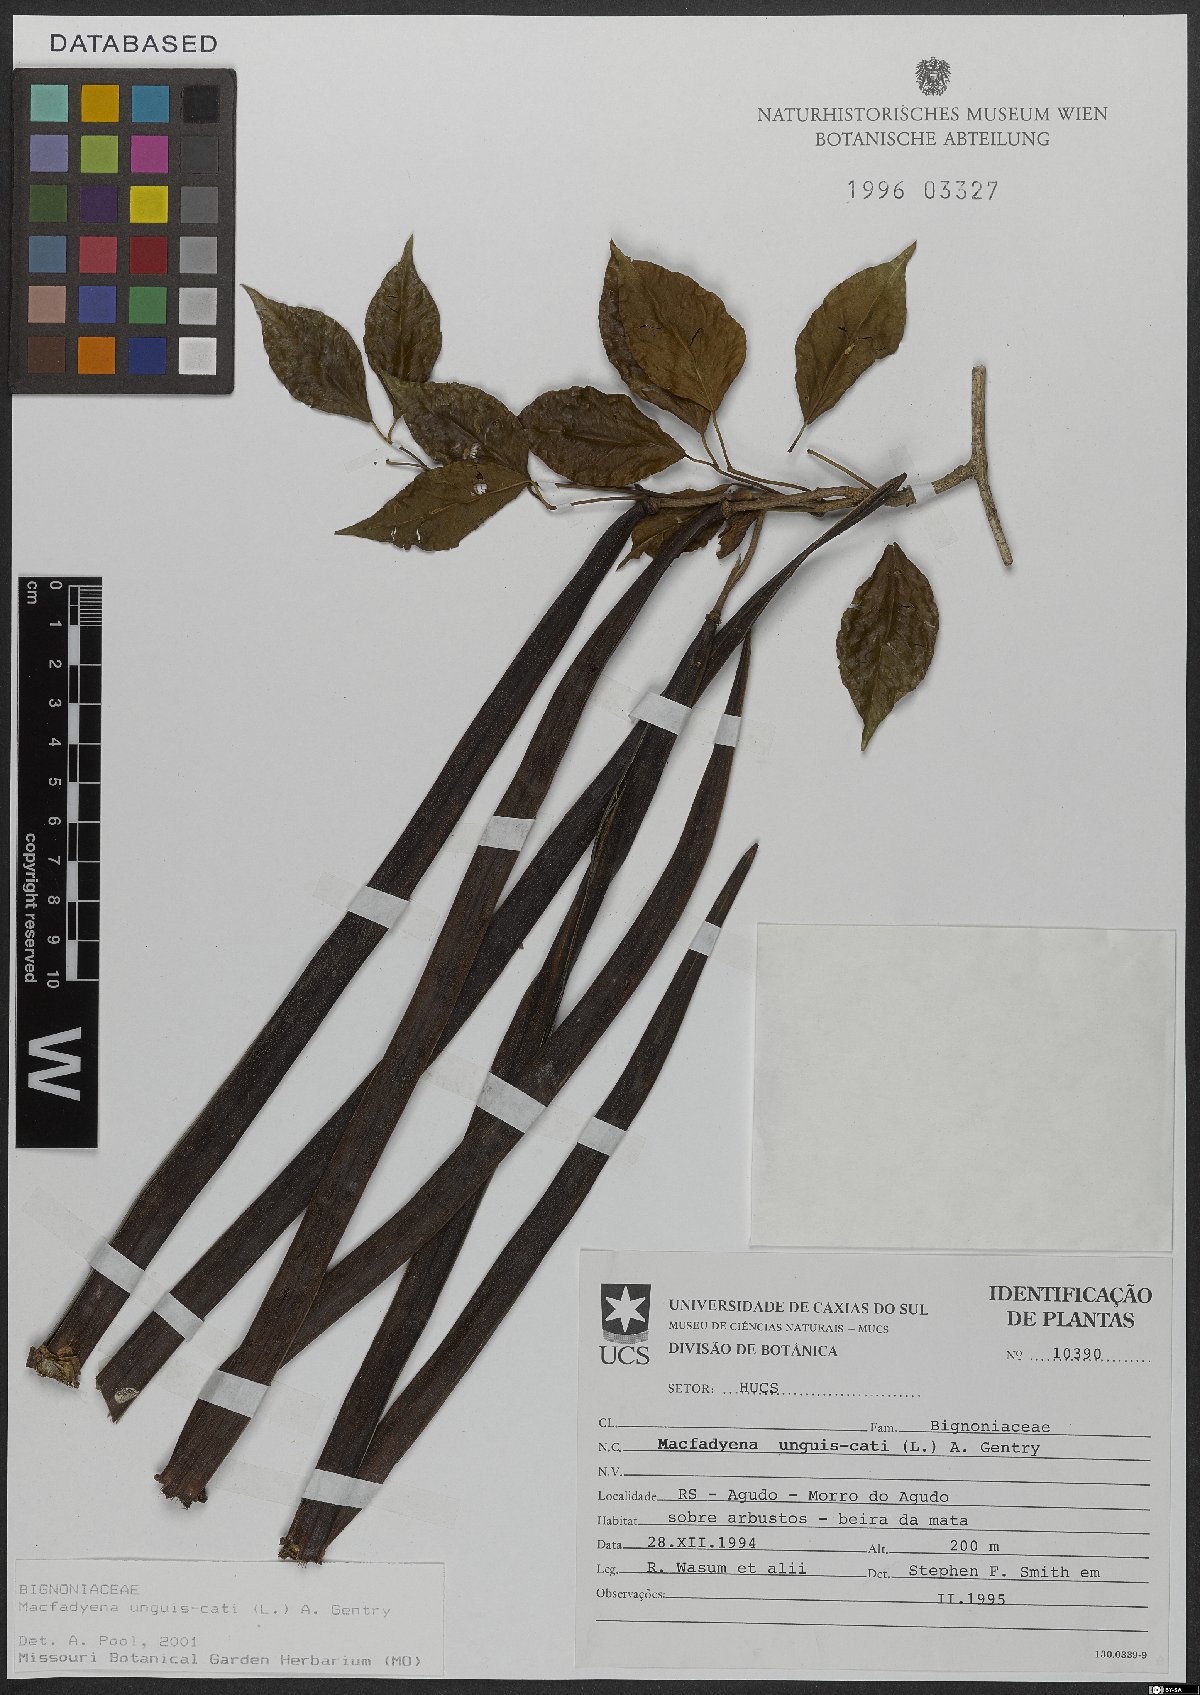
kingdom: Plantae
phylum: Tracheophyta
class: Magnoliopsida
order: Lamiales
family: Bignoniaceae
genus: Dolichandra
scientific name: Dolichandra unguis-cati
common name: Catclaw vine
